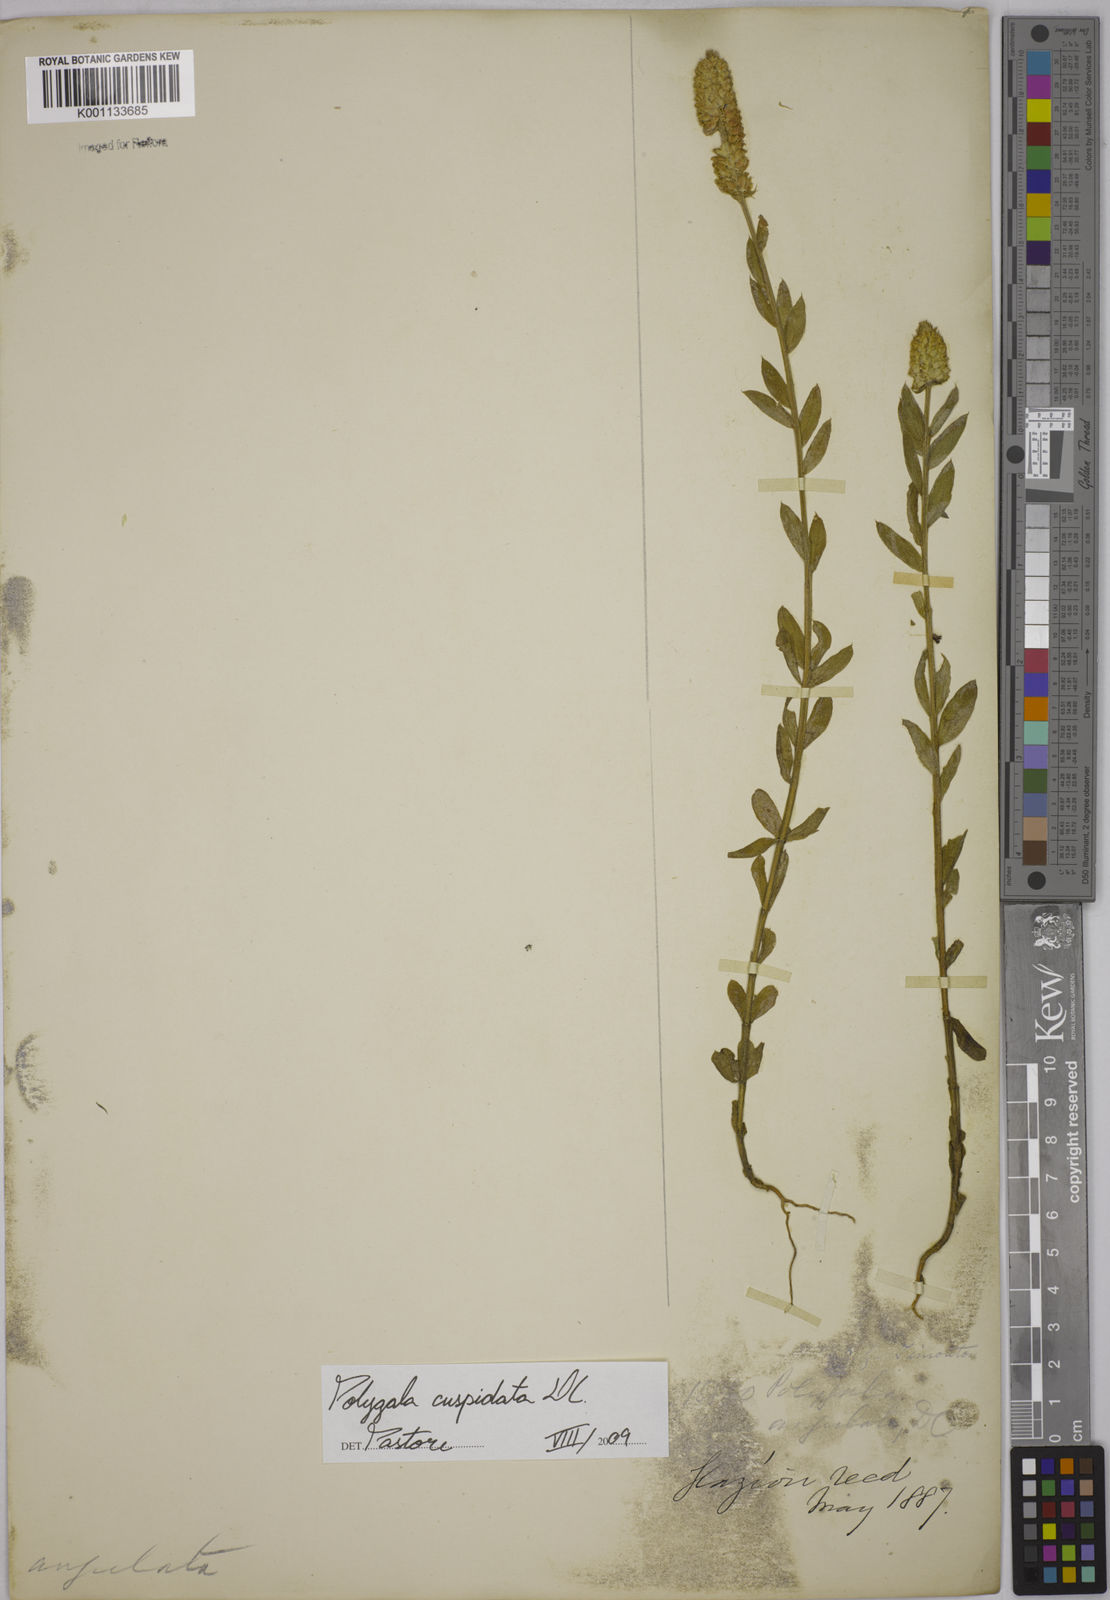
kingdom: Plantae
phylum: Tracheophyta
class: Magnoliopsida
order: Fabales
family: Polygalaceae
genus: Polygala
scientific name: Polygala cuspidata
